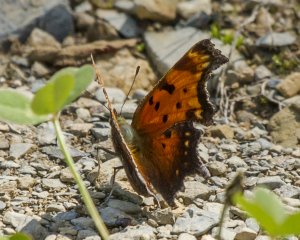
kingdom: Animalia
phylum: Arthropoda
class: Insecta
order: Lepidoptera
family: Nymphalidae
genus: Polygonia
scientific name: Polygonia progne
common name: Gray Comma
